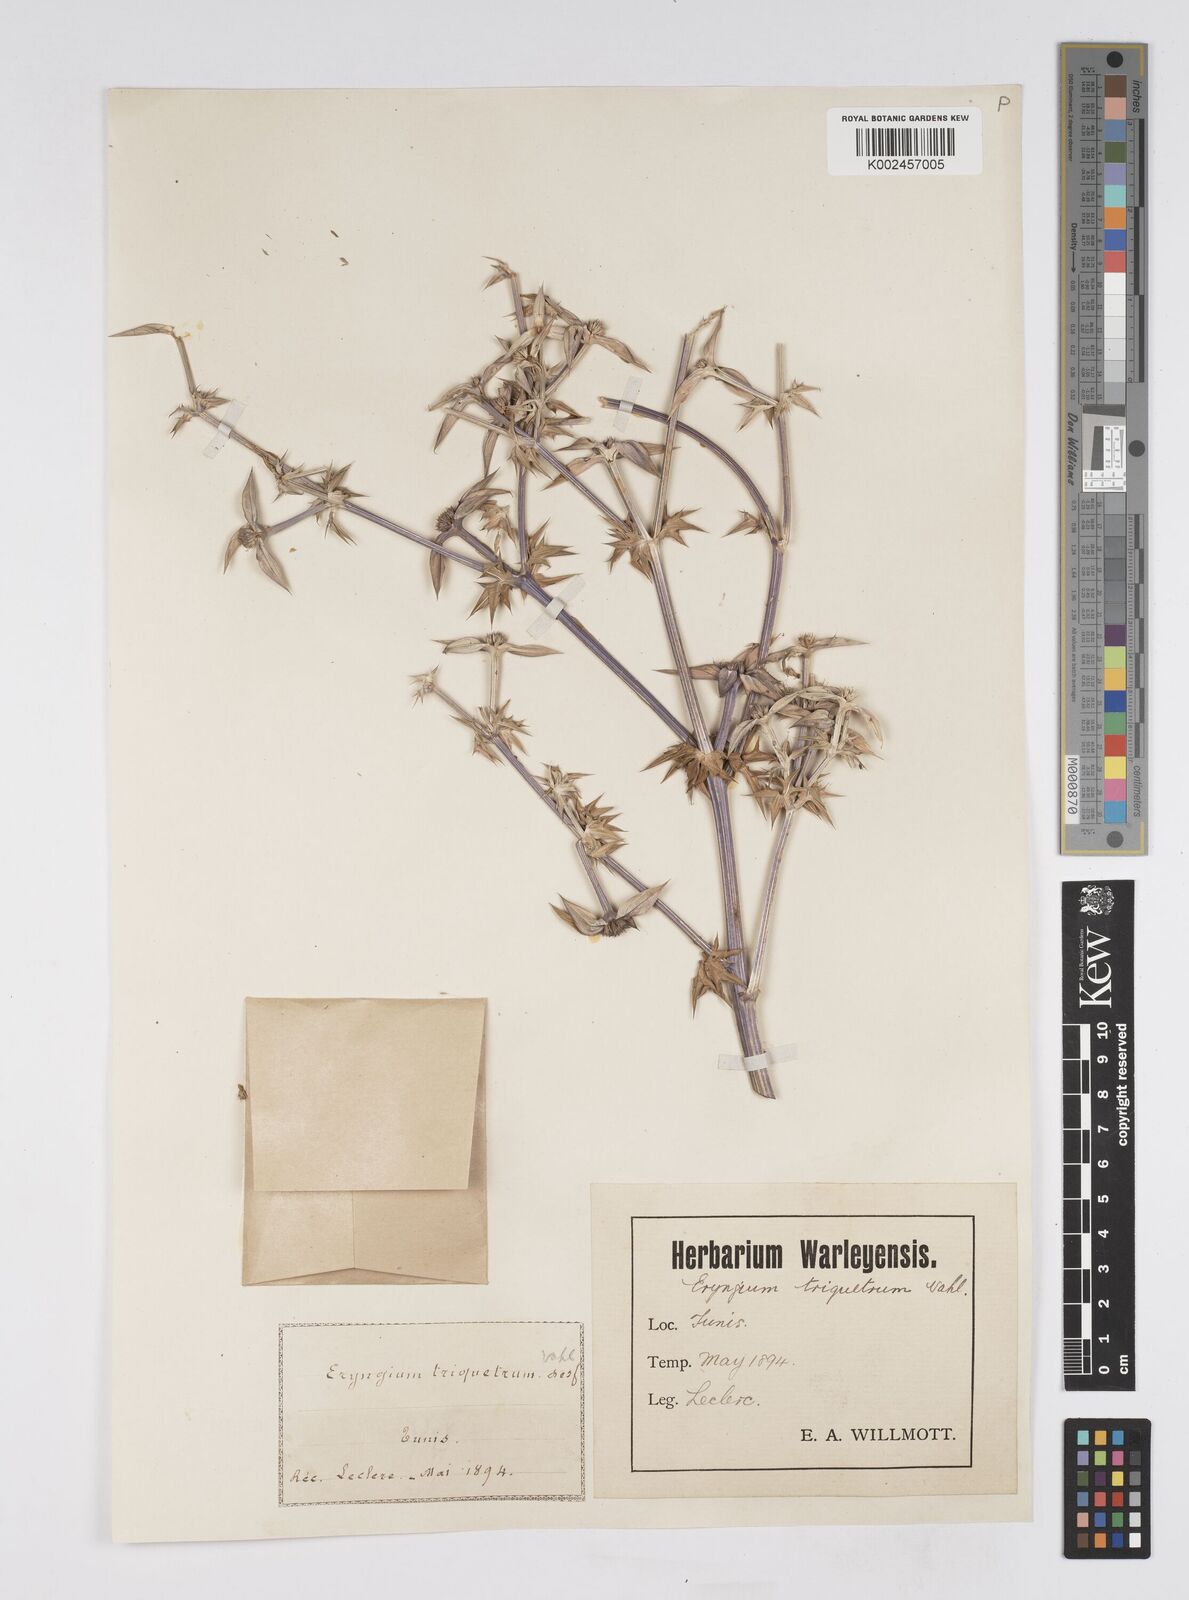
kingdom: Plantae
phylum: Tracheophyta
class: Magnoliopsida
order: Apiales
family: Apiaceae
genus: Eryngium
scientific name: Eryngium triquetrum
